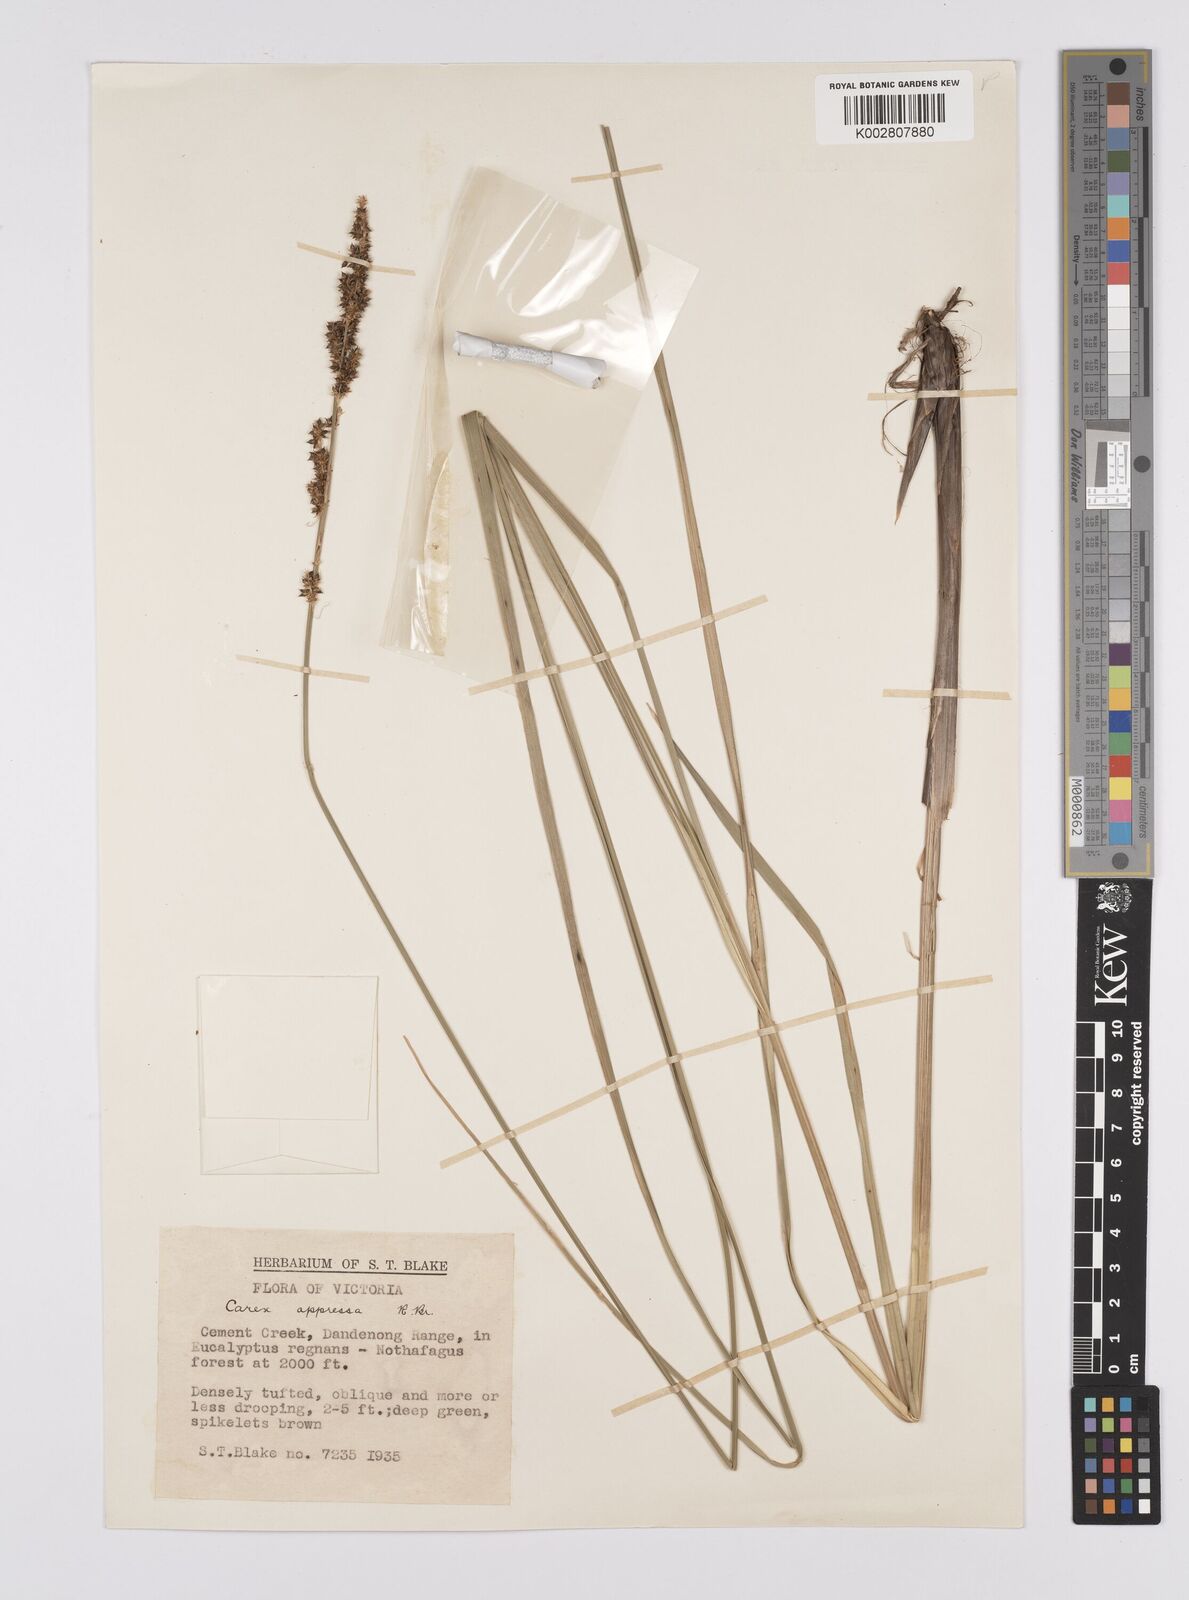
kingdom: Plantae
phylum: Tracheophyta
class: Liliopsida
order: Poales
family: Cyperaceae
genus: Carex
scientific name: Carex appressa
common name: Tussock sedge
